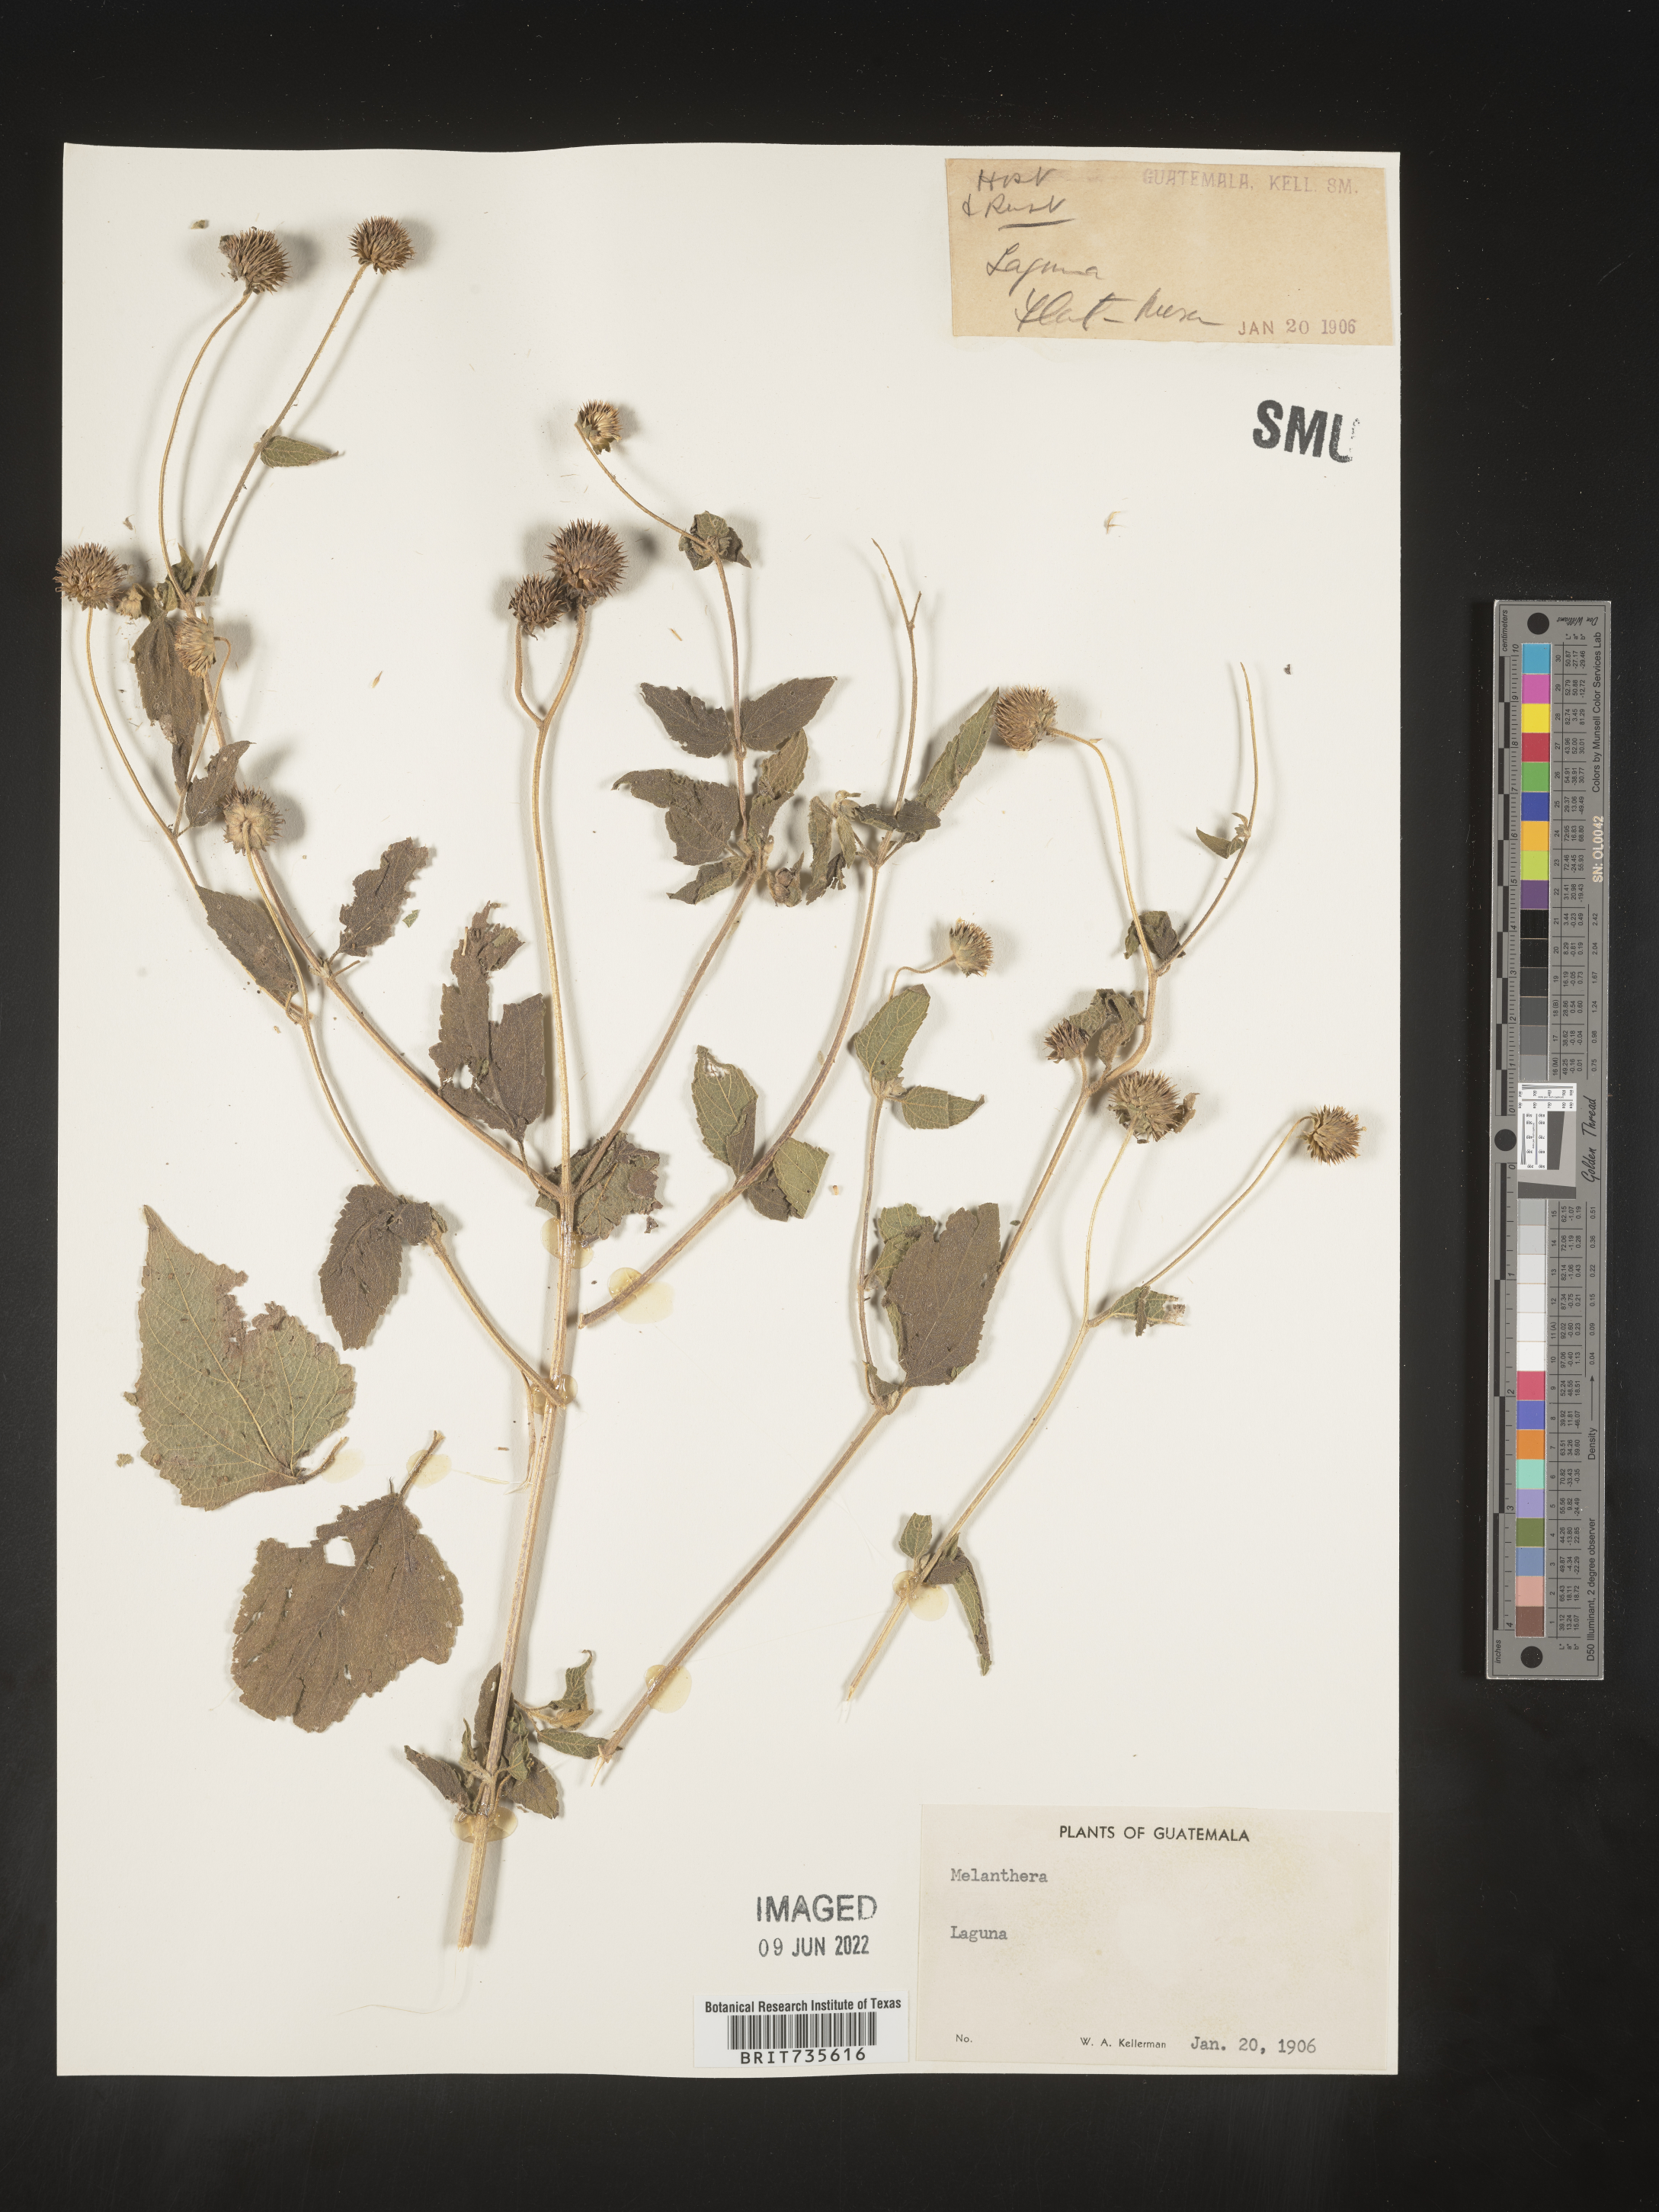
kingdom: Plantae
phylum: Tracheophyta
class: Magnoliopsida
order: Asterales
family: Asteraceae
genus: Melanthera
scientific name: Melanthera
